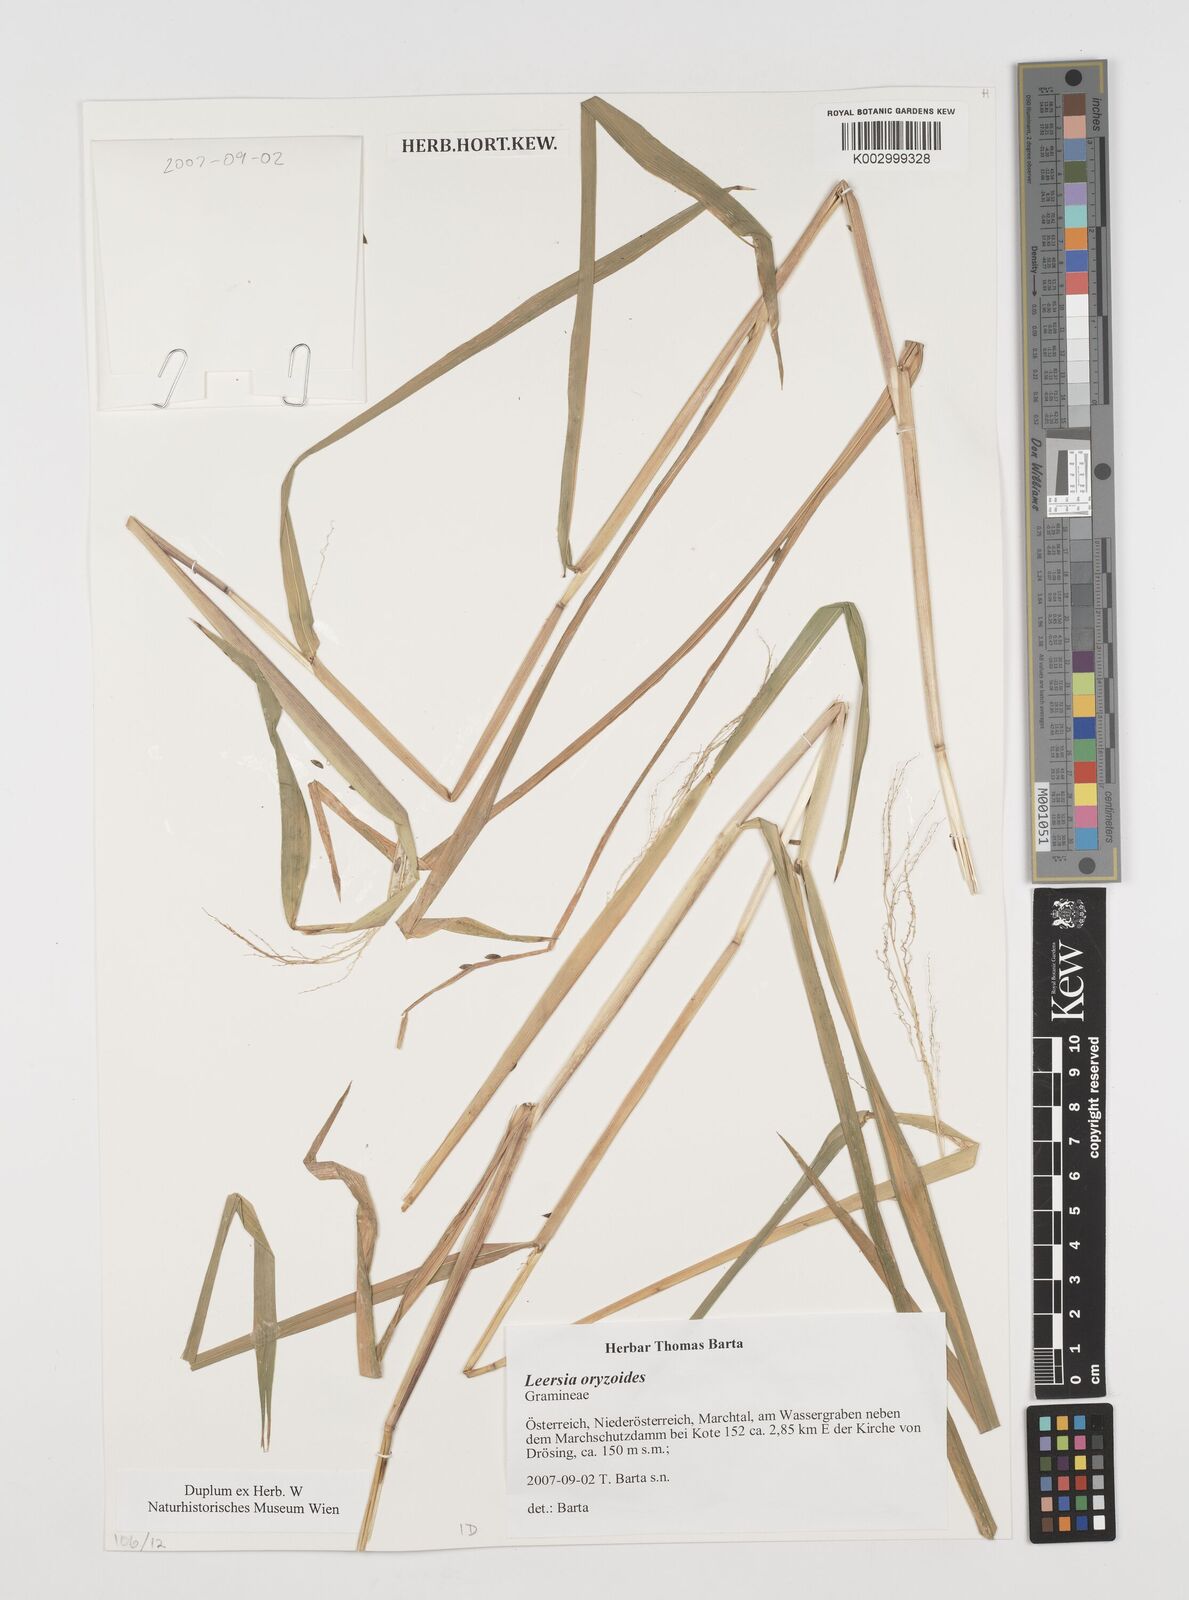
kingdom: Plantae
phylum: Tracheophyta
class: Liliopsida
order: Poales
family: Poaceae
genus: Leersia
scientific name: Leersia oryzoides
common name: Cut-grass
